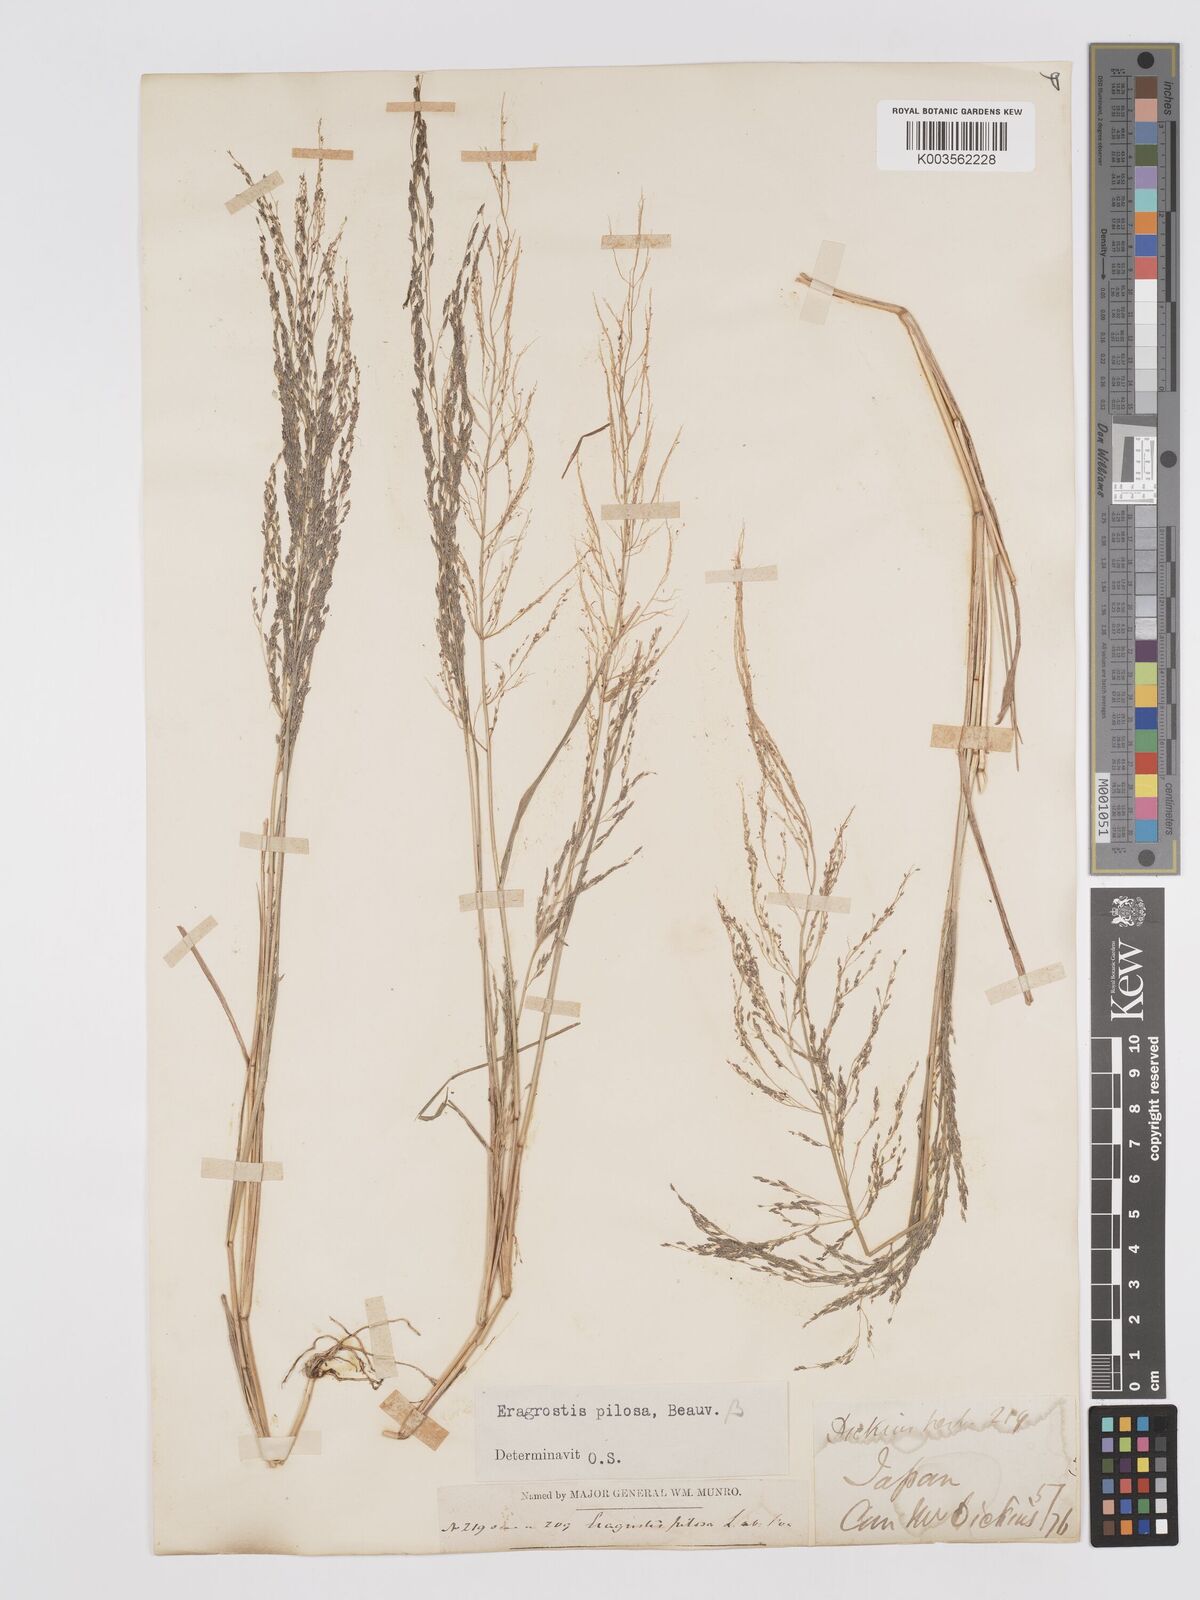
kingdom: Plantae
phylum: Tracheophyta
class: Liliopsida
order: Poales
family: Poaceae
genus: Eragrostis
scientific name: Eragrostis pilosa
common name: Indian lovegrass
